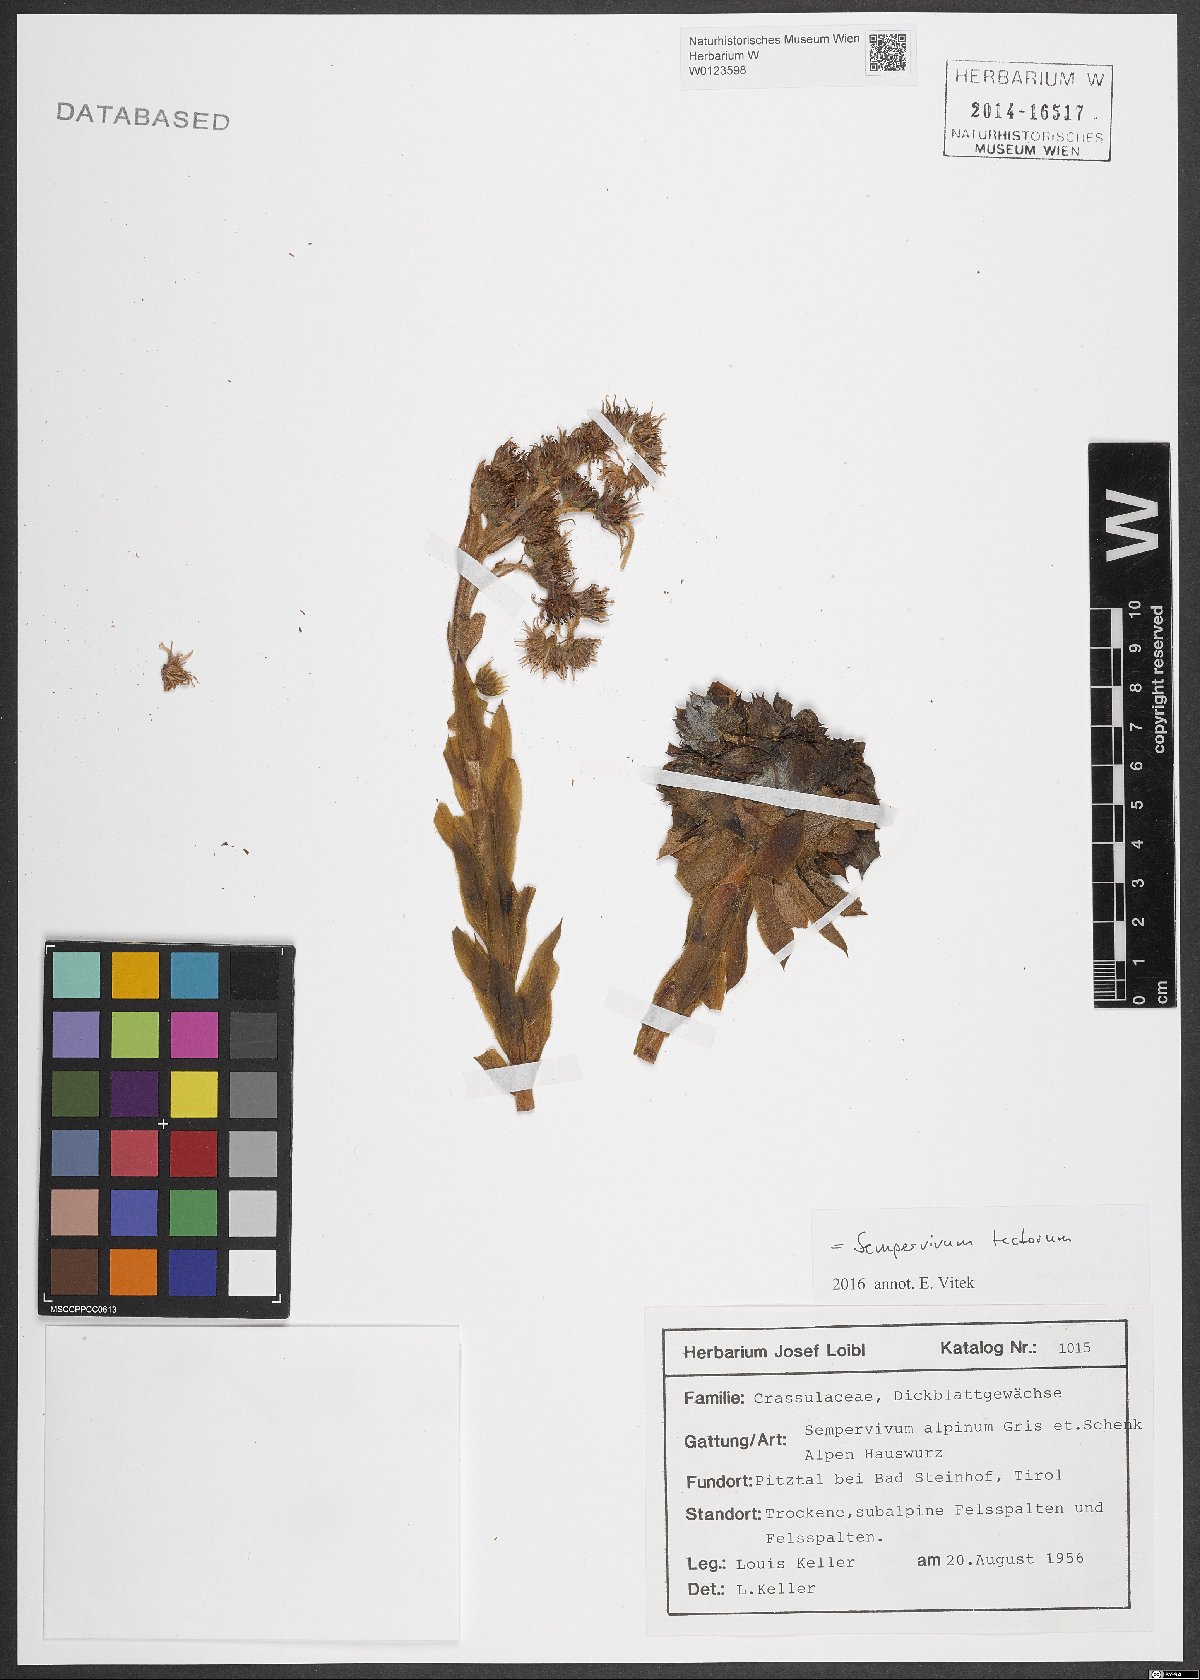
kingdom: Plantae
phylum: Tracheophyta
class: Magnoliopsida
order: Saxifragales
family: Crassulaceae
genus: Sempervivum
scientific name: Sempervivum tectorum
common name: House-leek
